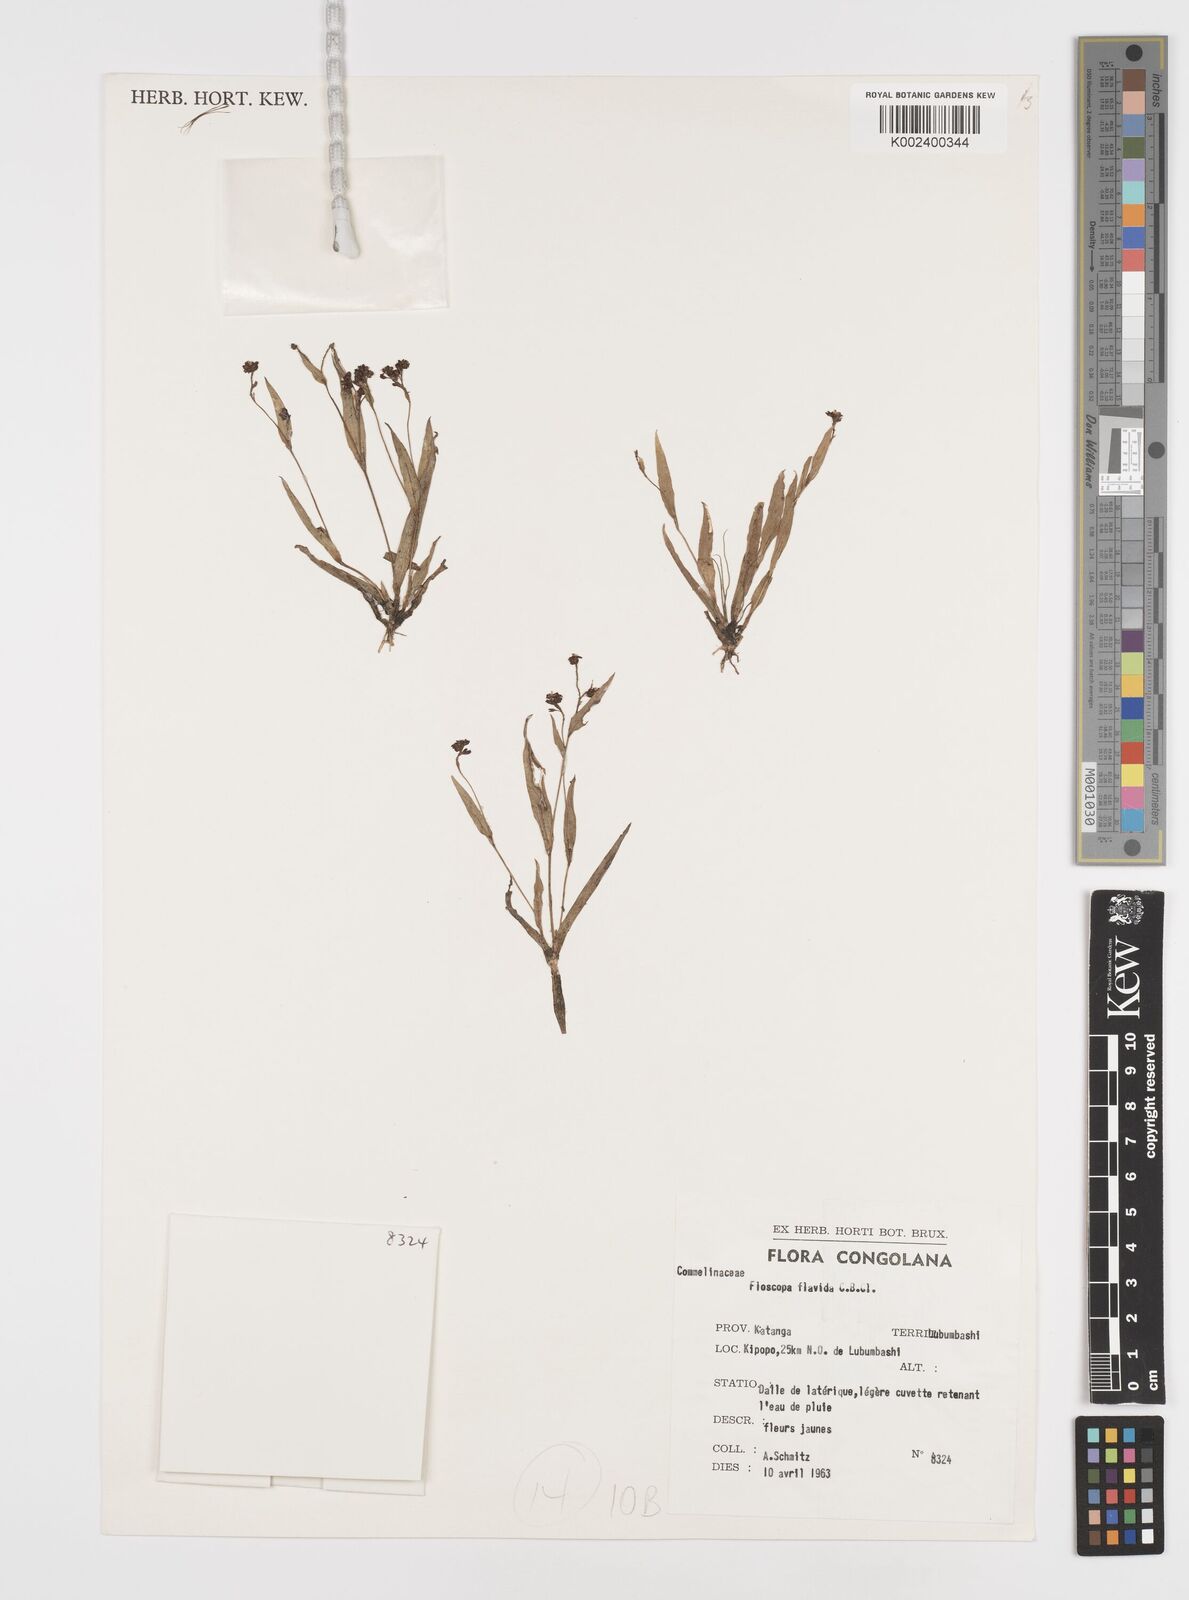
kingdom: Plantae
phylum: Tracheophyta
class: Liliopsida
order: Commelinales
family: Commelinaceae
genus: Floscopa
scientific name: Floscopa flavida
